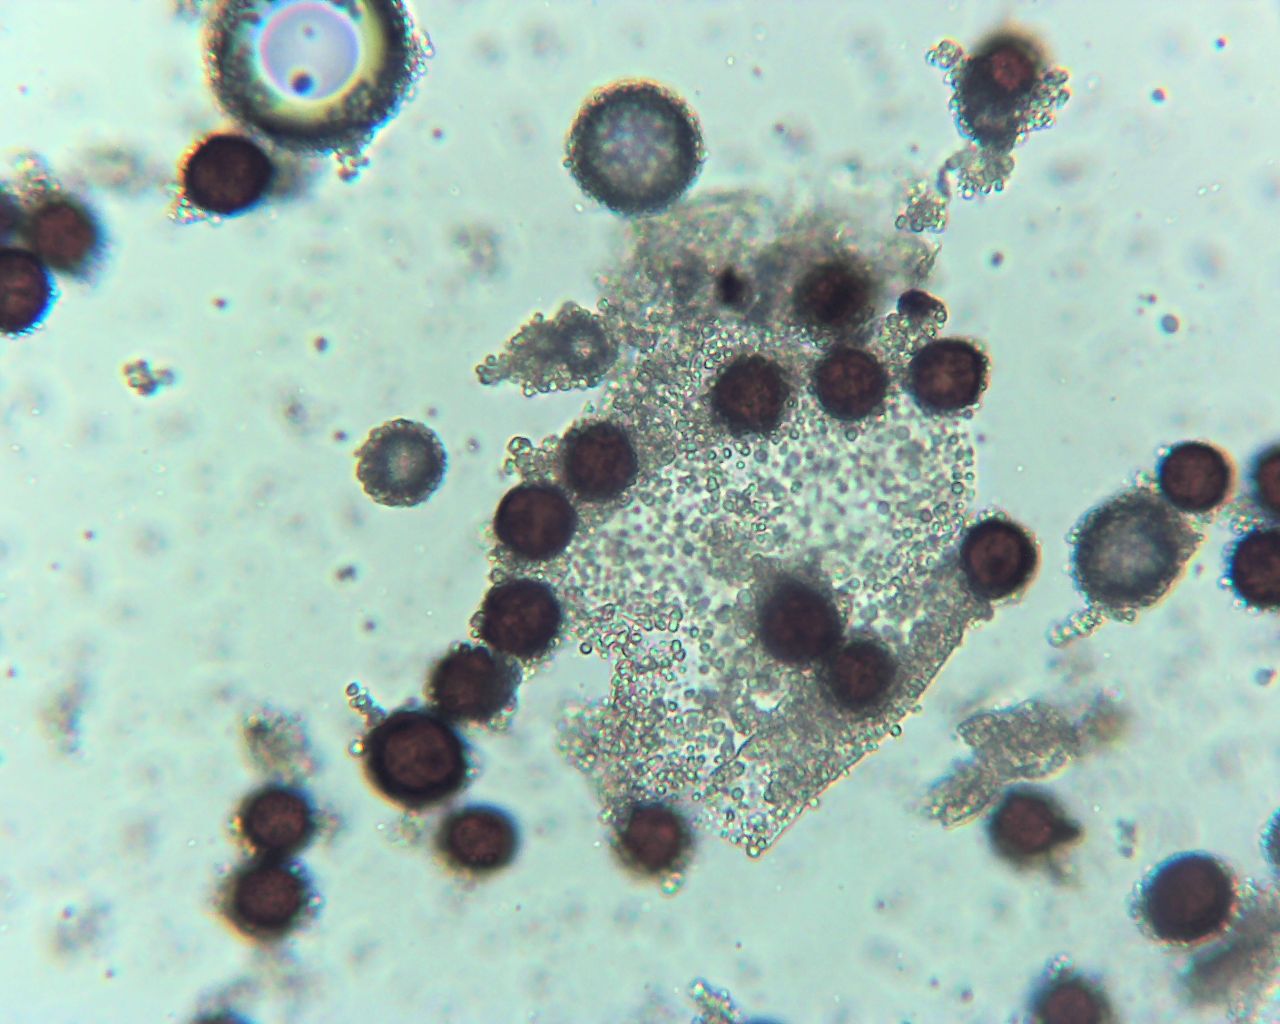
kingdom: Protozoa
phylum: Mycetozoa
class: Myxomycetes
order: Physarales
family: Physaraceae
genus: Badhamia
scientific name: Badhamia
